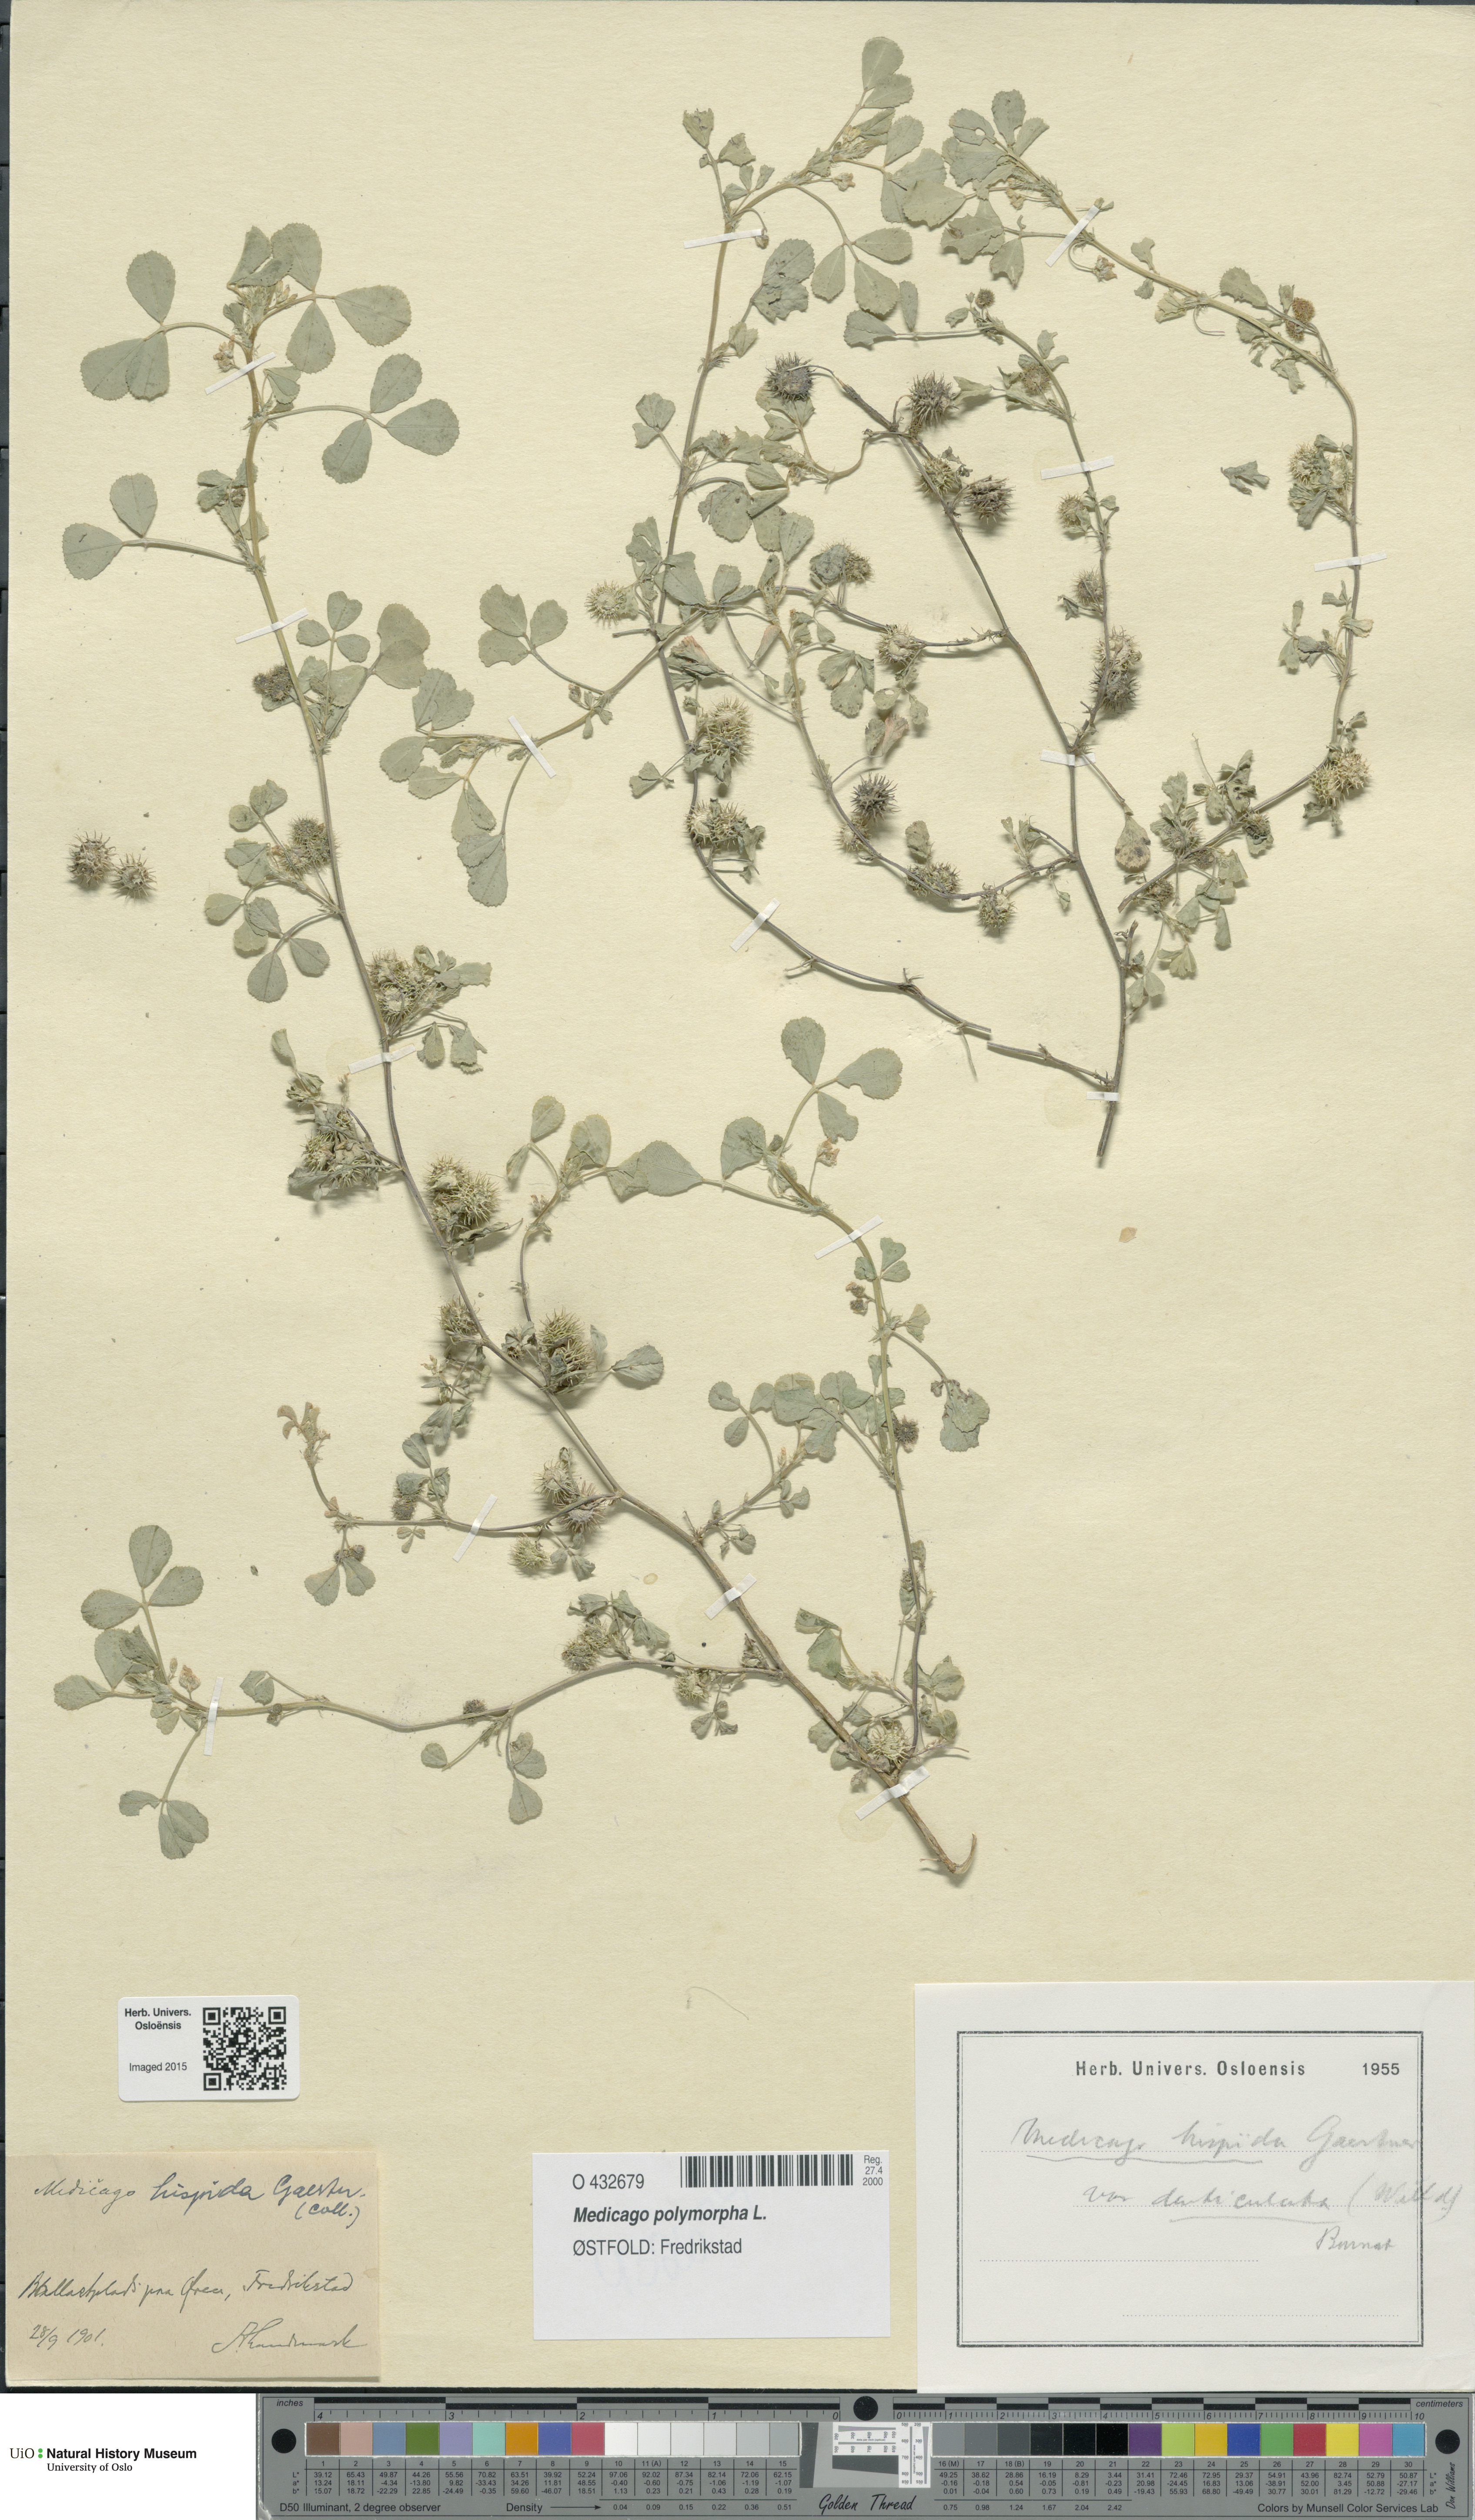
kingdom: Plantae
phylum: Tracheophyta
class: Magnoliopsida
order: Fabales
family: Fabaceae
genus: Medicago
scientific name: Medicago polymorpha
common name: Burclover
